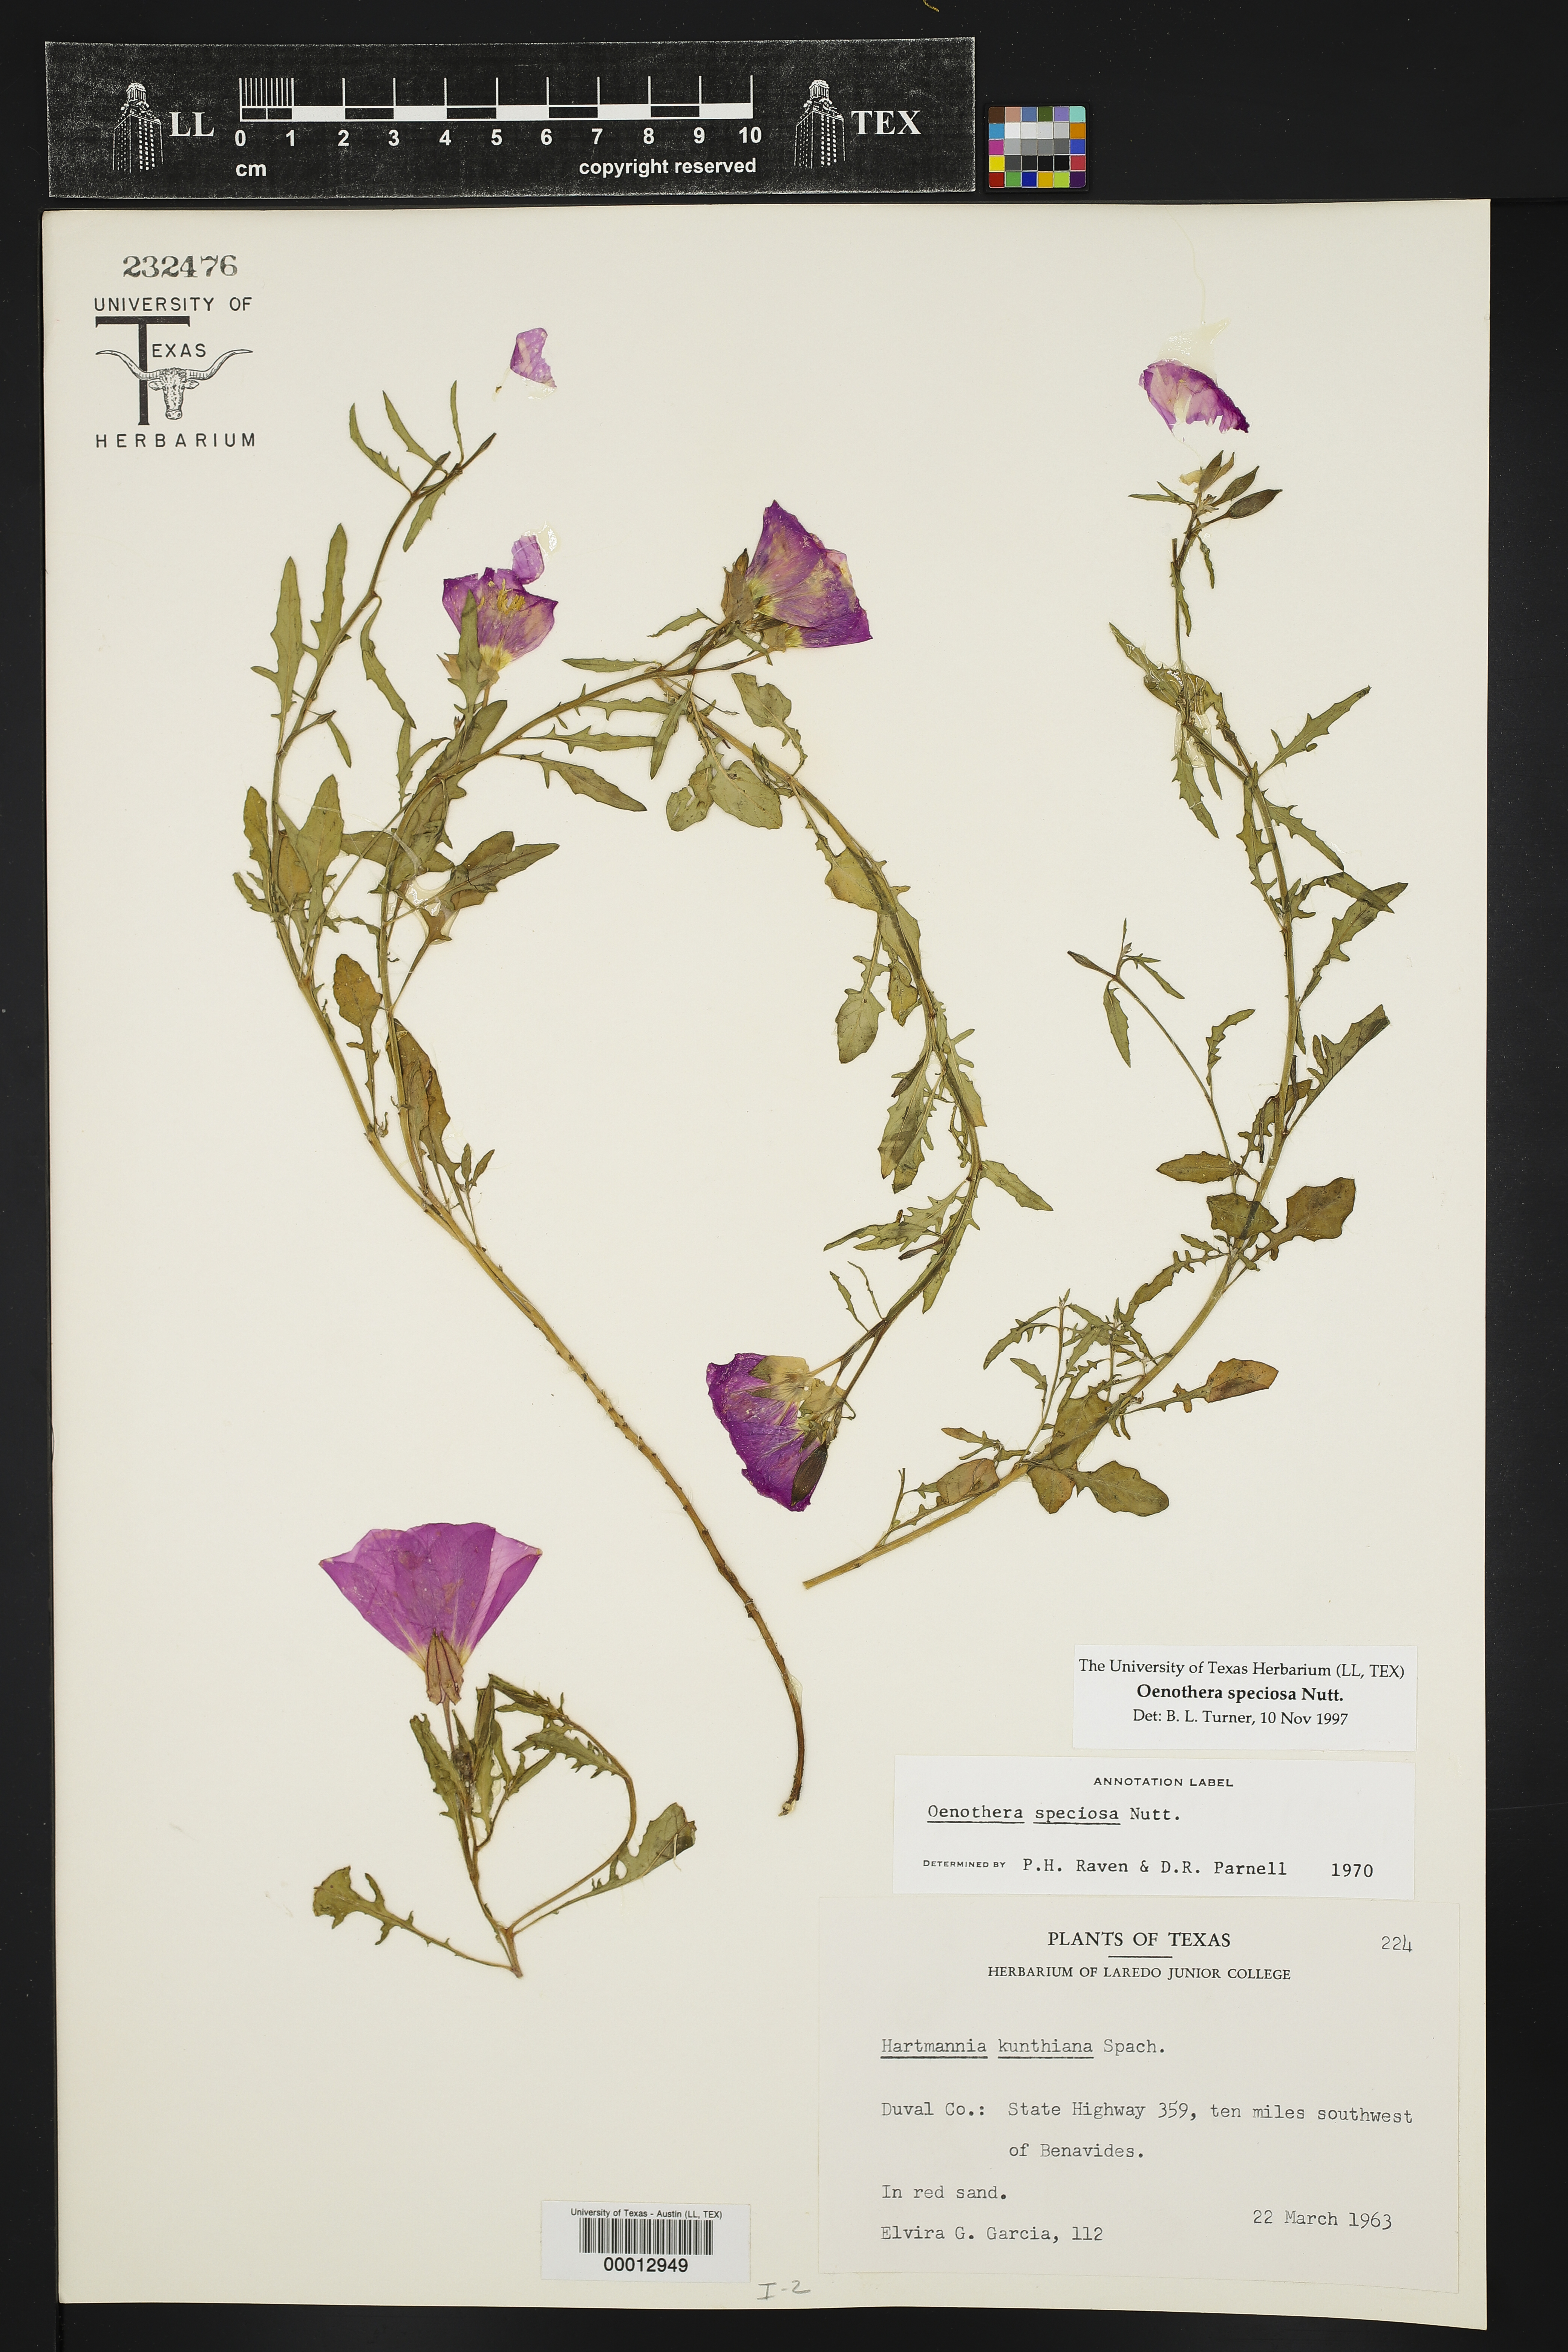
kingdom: Plantae
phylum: Tracheophyta
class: Magnoliopsida
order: Myrtales
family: Onagraceae
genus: Oenothera
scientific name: Oenothera speciosa
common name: White evening-primrose
